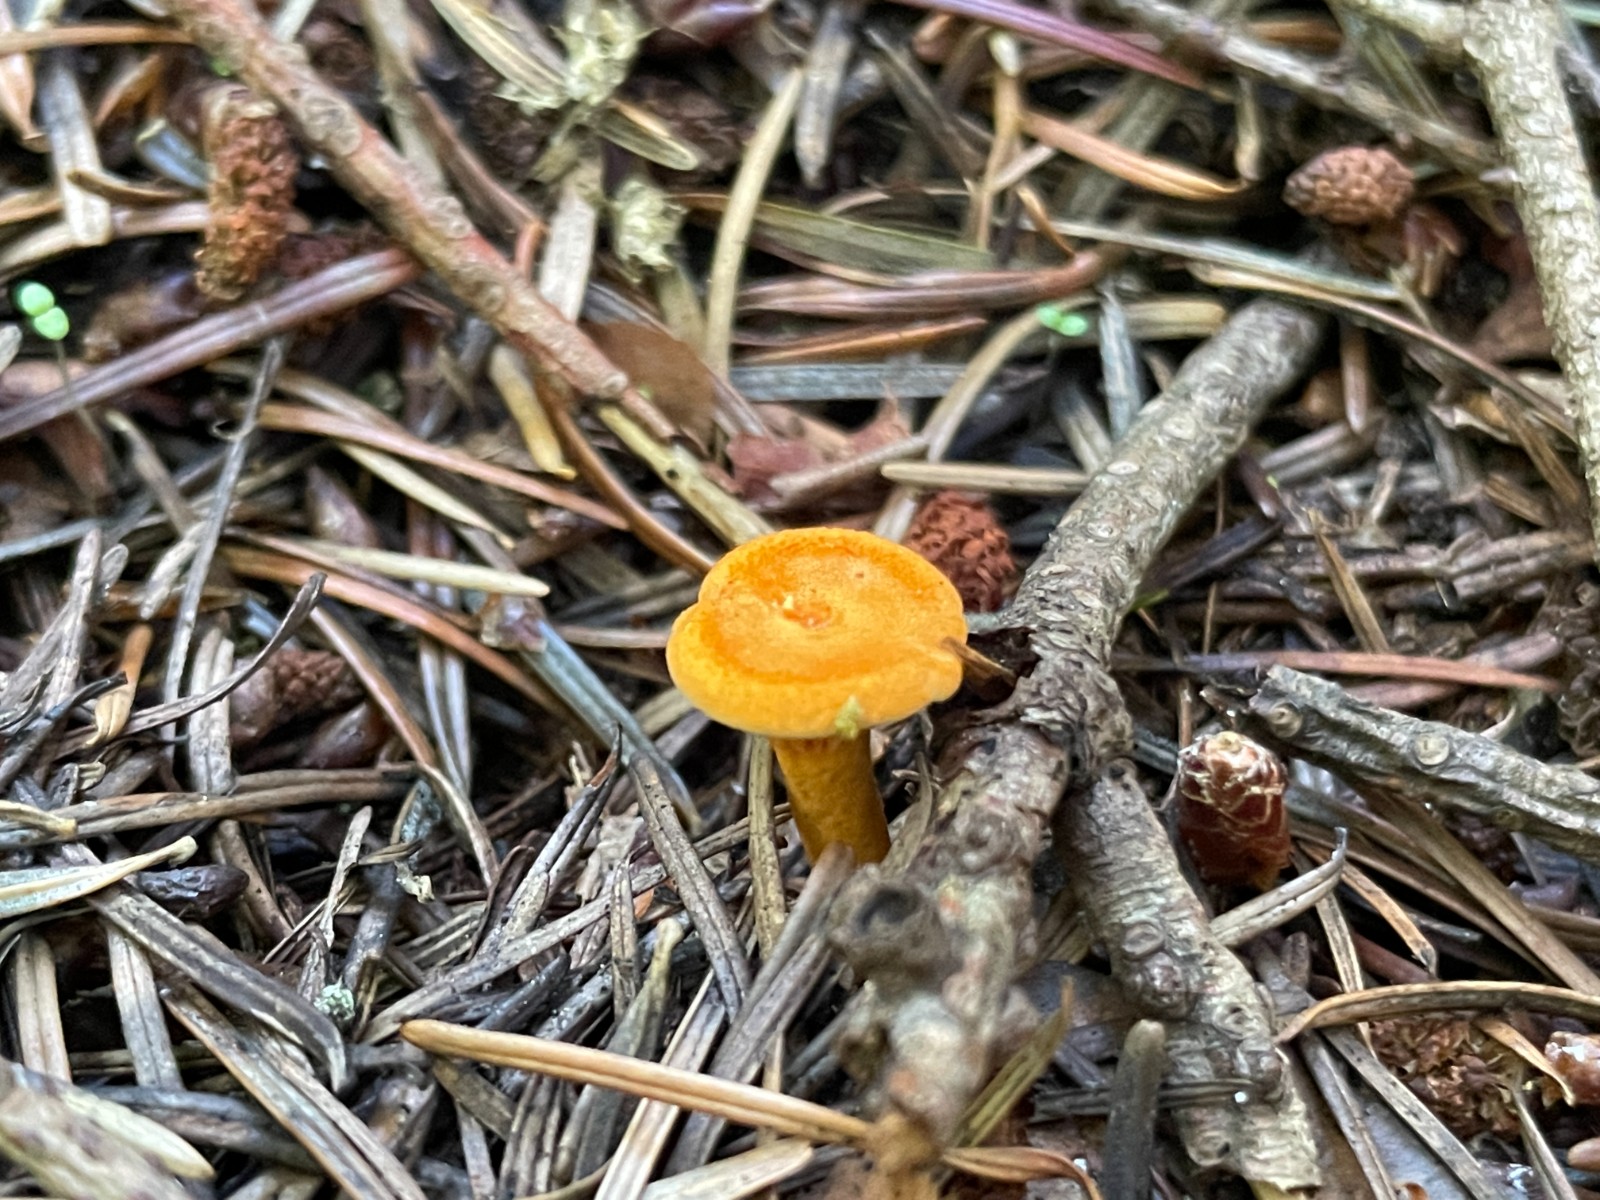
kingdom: Fungi
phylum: Basidiomycota
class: Agaricomycetes
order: Boletales
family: Hygrophoropsidaceae
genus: Hygrophoropsis
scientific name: Hygrophoropsis aurantiaca
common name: almindelig orangekantarel
